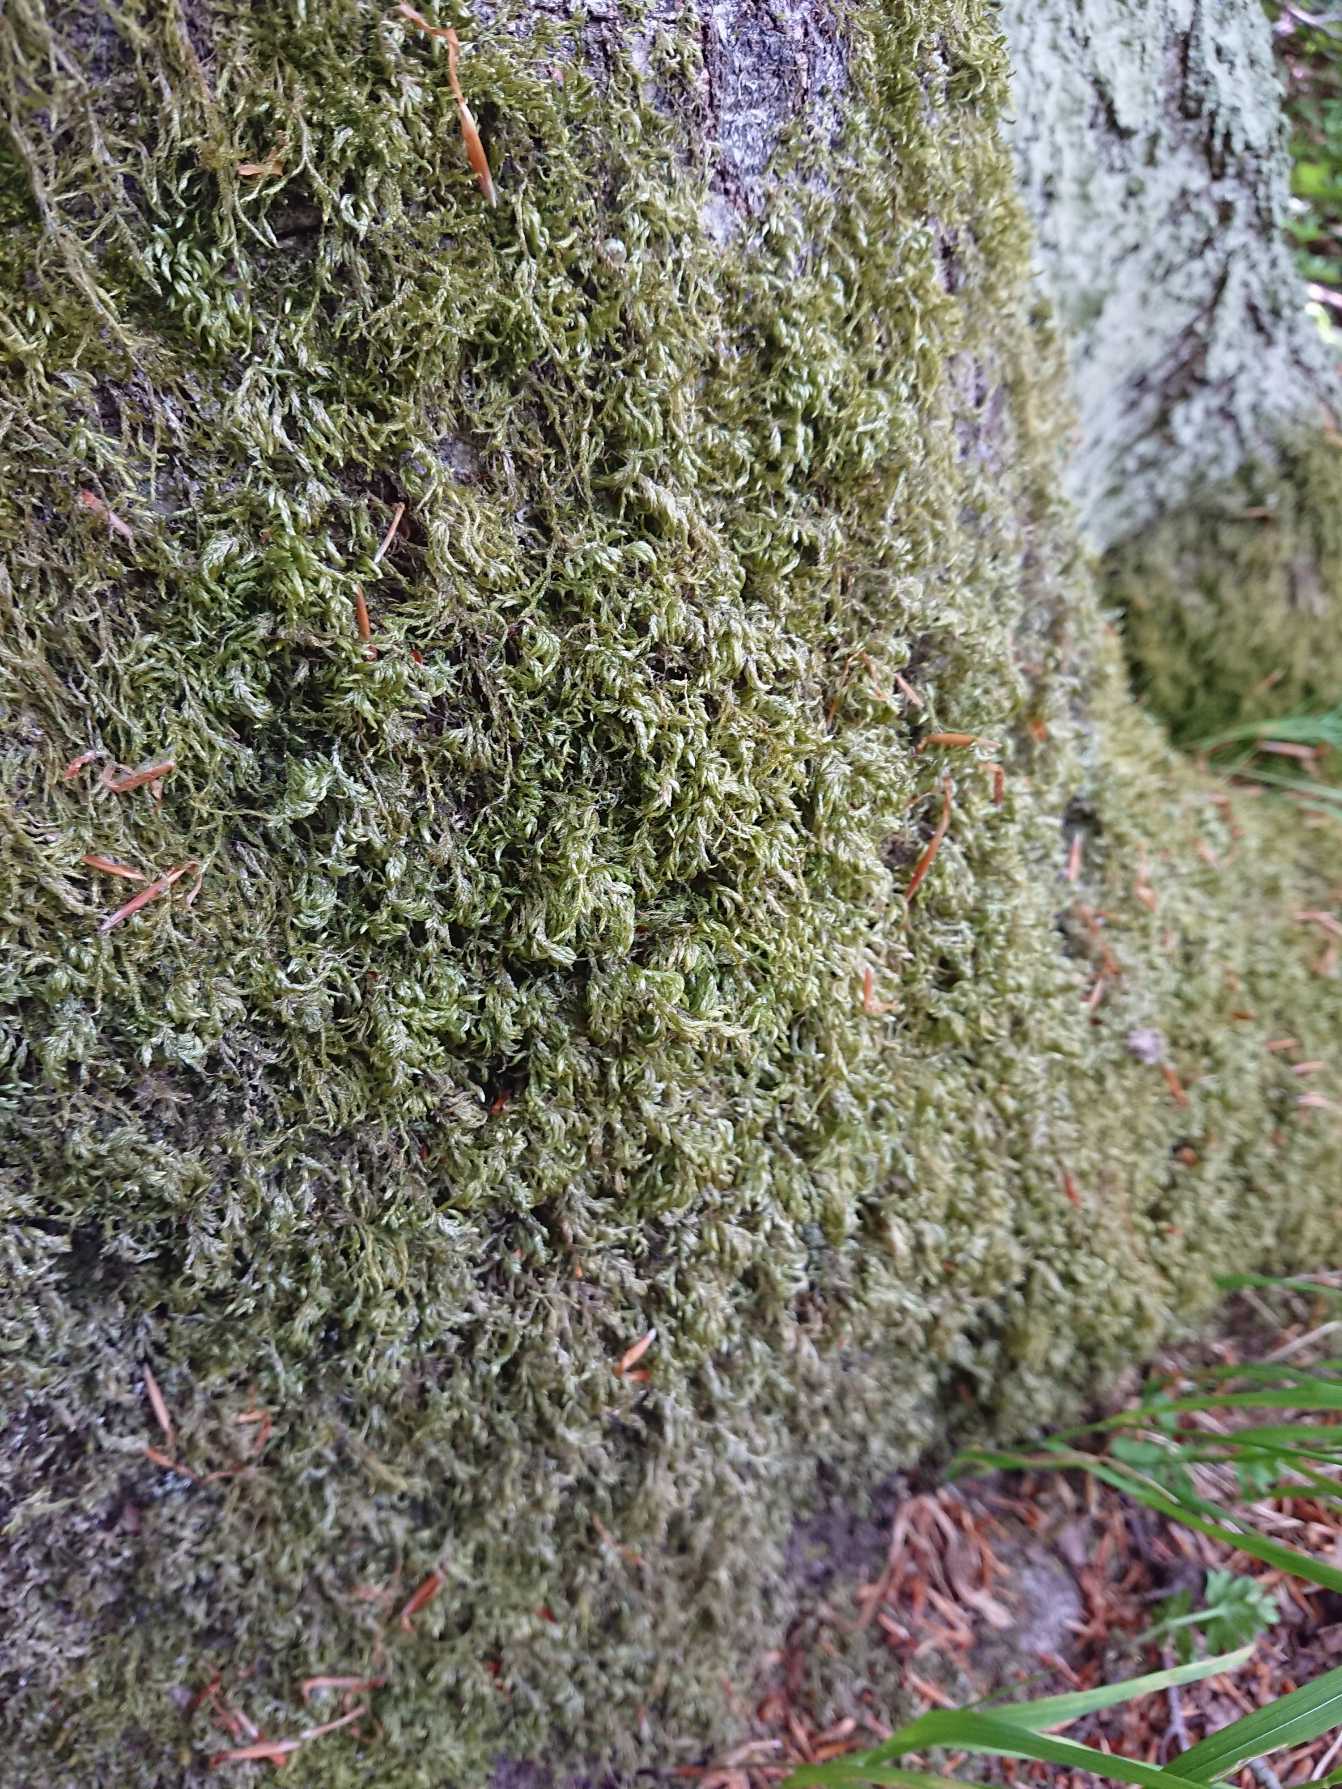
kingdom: Plantae
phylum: Bryophyta
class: Bryopsida
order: Hypnales
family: Lembophyllaceae
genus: Isothecium
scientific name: Isothecium alopecuroides
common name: Stor stammemos
